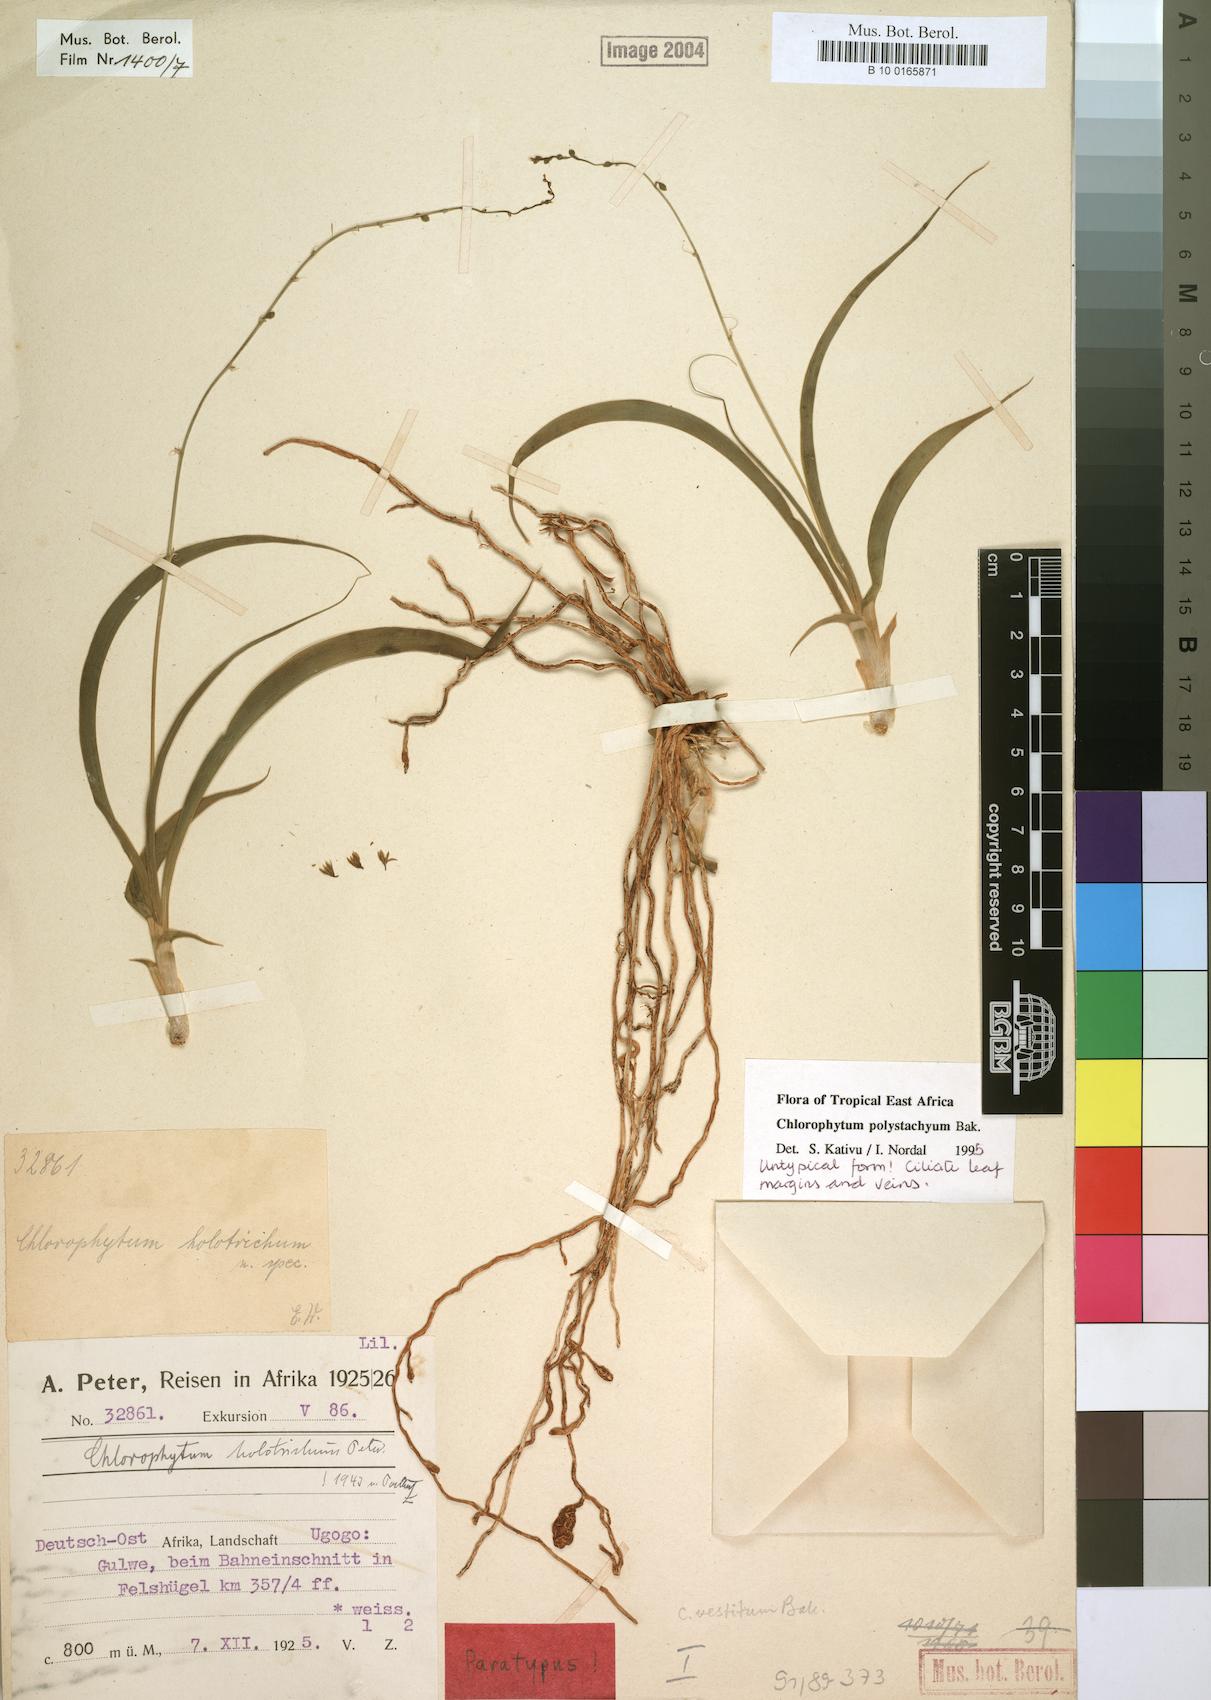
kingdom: Plantae
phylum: Tracheophyta
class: Liliopsida
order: Asparagales
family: Asparagaceae
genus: Chlorophytum
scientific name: Chlorophytum polystachys
